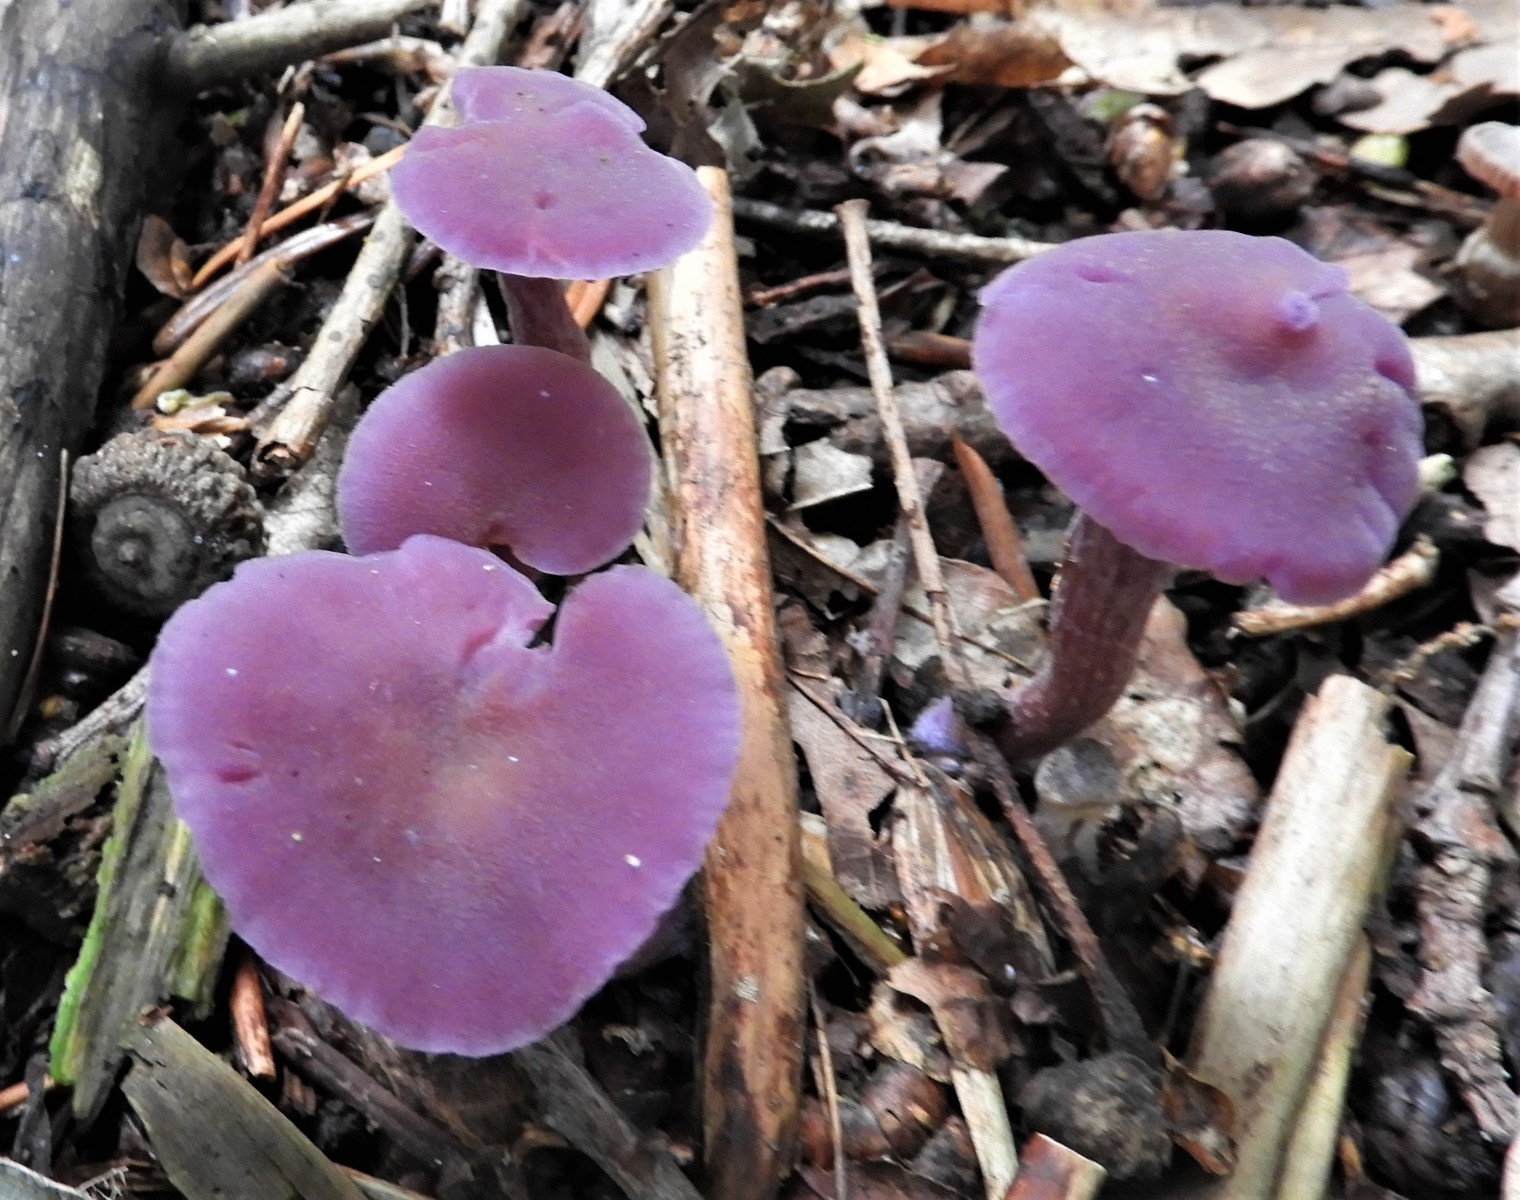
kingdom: Fungi
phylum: Basidiomycota
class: Agaricomycetes
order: Agaricales
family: Hydnangiaceae
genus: Laccaria
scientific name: Laccaria amethystina
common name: violet ametysthat
